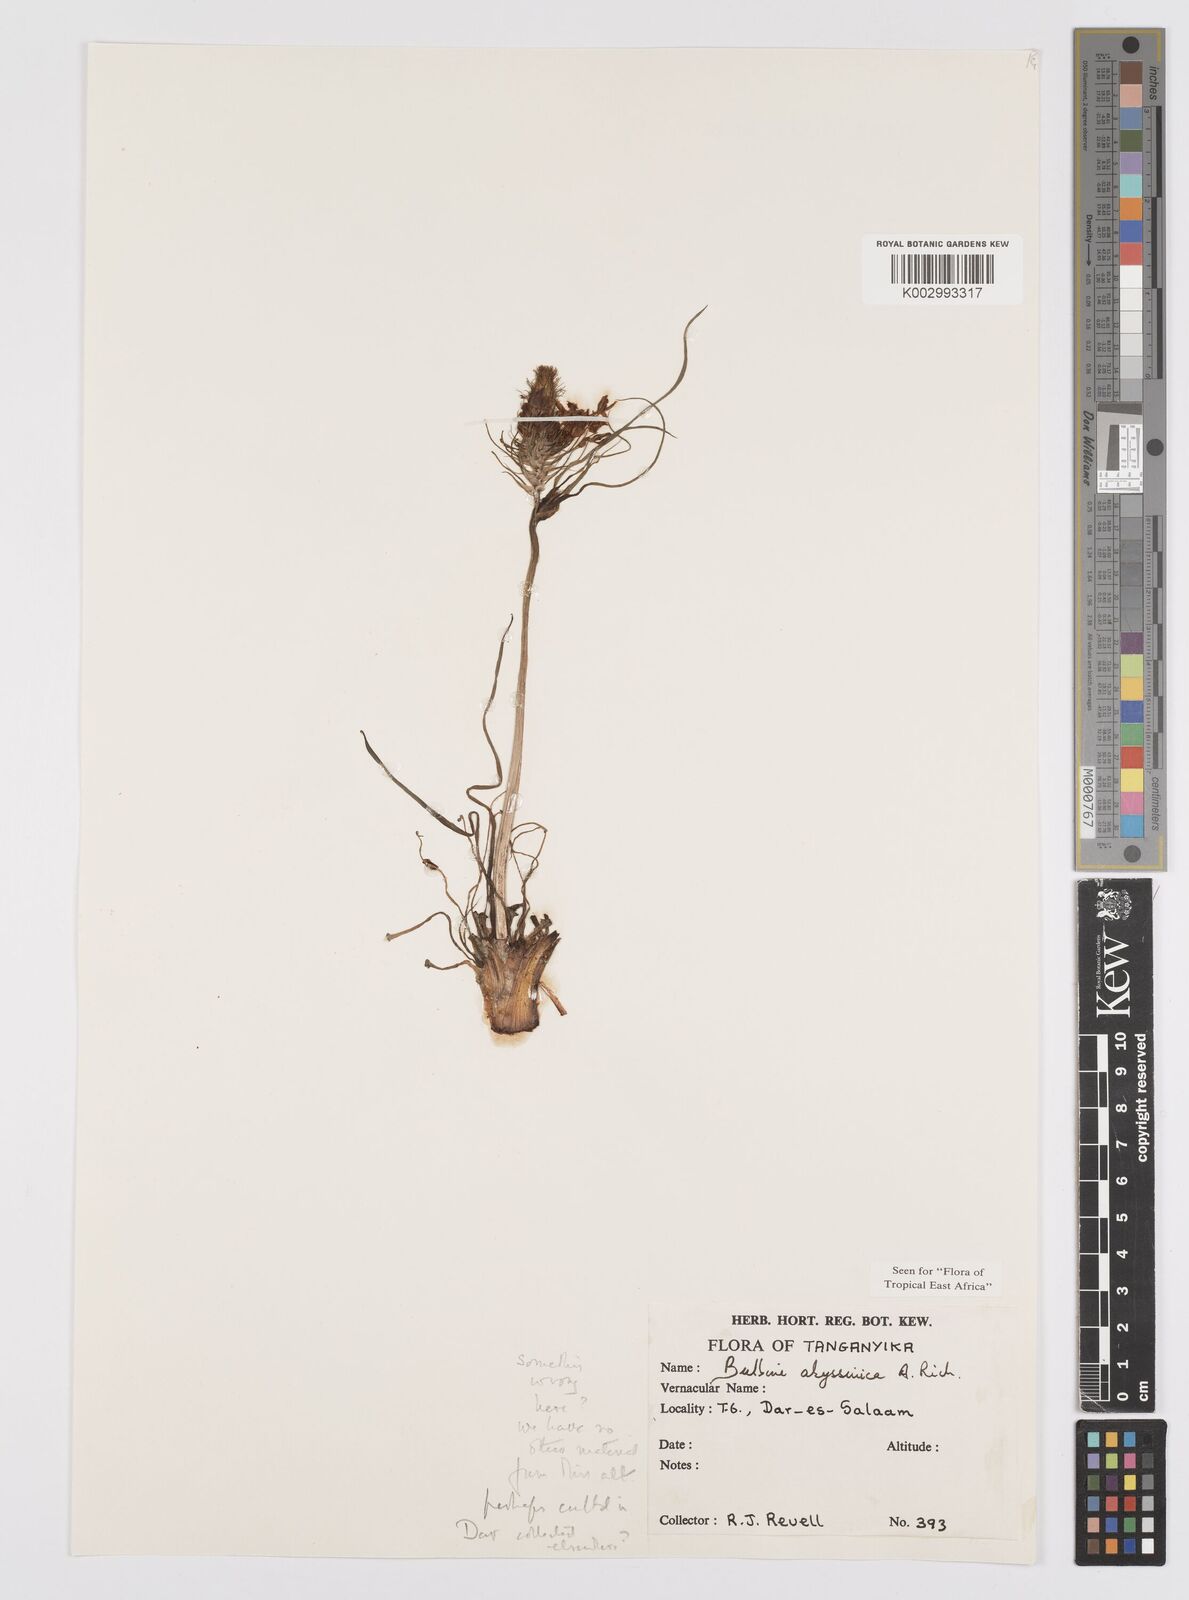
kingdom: Plantae
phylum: Tracheophyta
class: Liliopsida
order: Asparagales
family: Asphodelaceae
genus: Bulbine
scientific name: Bulbine abyssinica
